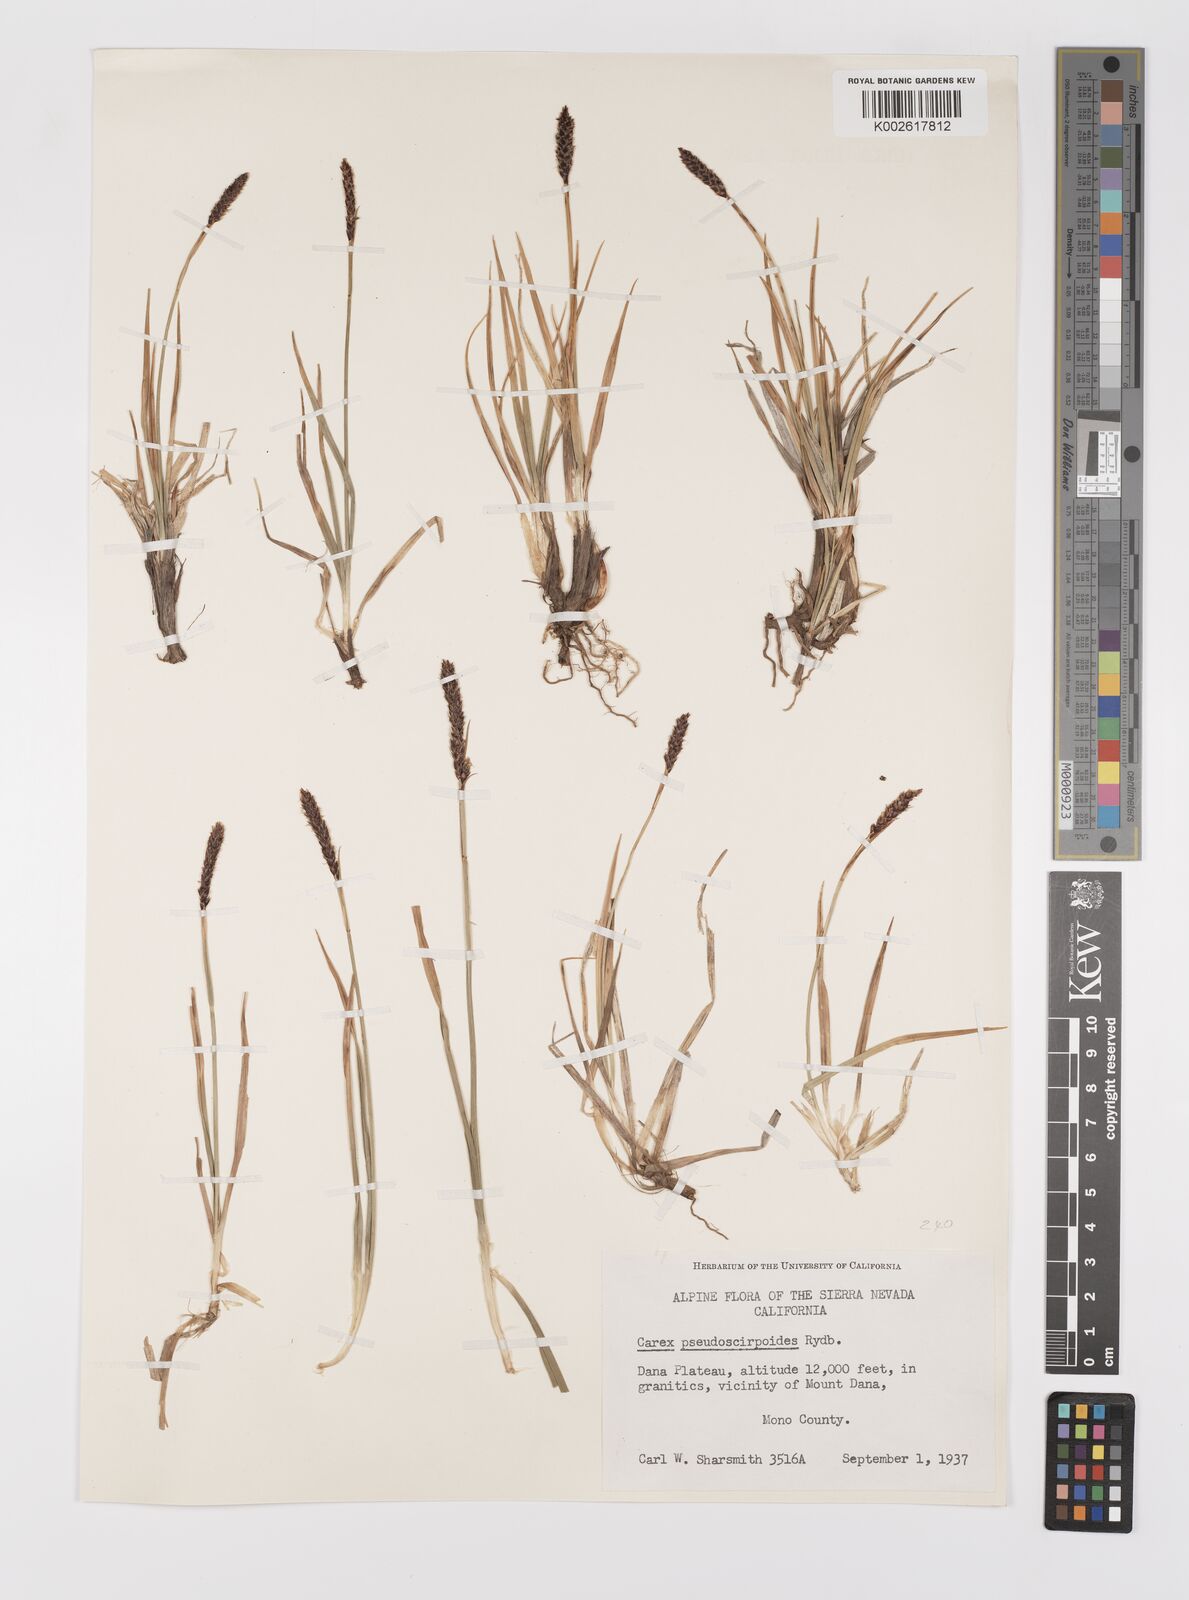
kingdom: Plantae
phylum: Tracheophyta
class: Liliopsida
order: Poales
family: Cyperaceae
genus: Carex
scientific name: Carex scirpoidea
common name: Canada single-spike sedge
